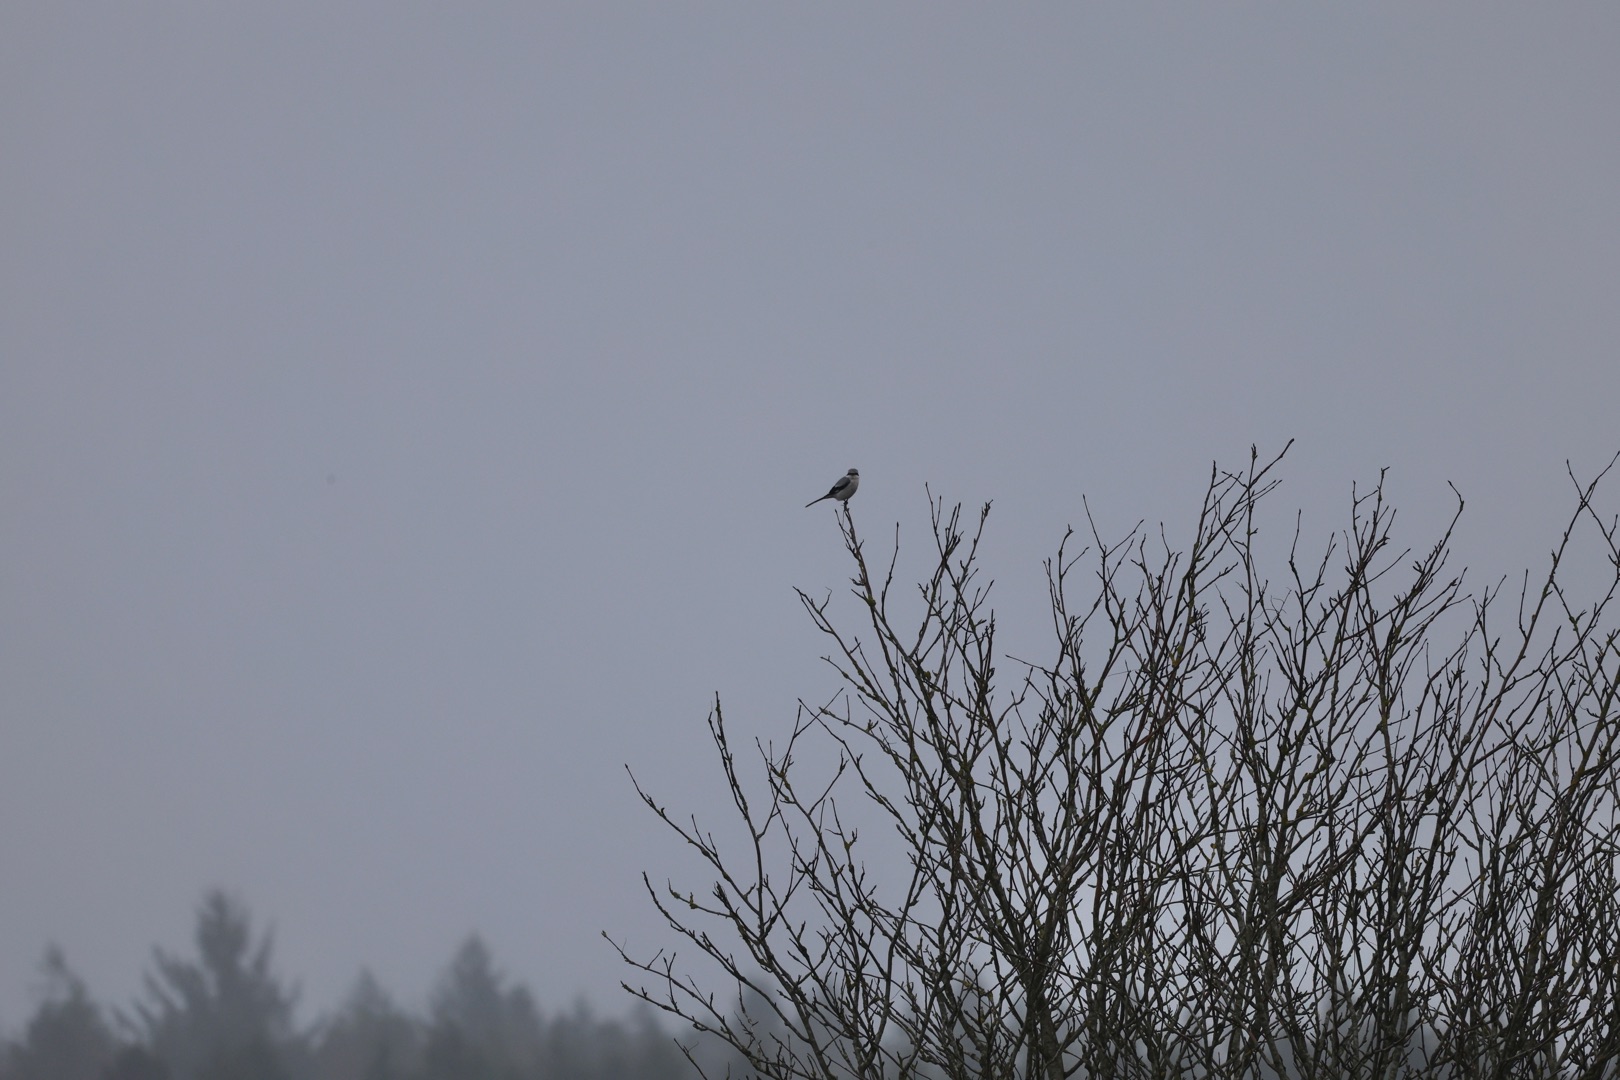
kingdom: Animalia
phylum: Chordata
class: Aves
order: Passeriformes
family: Laniidae
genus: Lanius
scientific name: Lanius excubitor
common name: Stor tornskade
